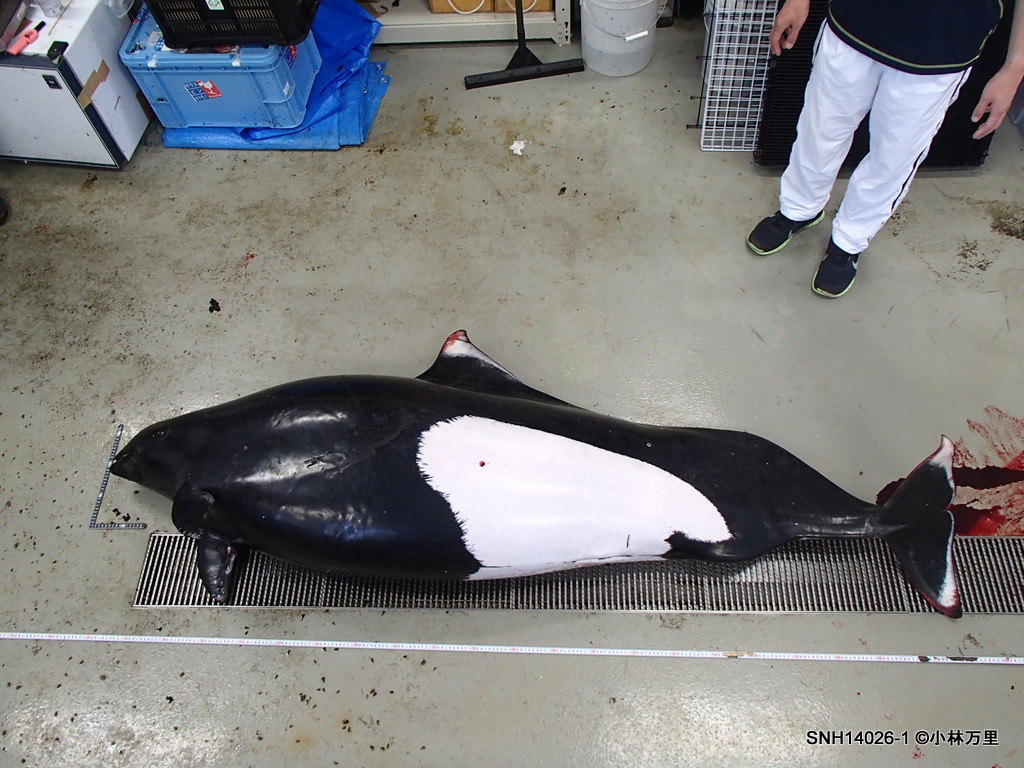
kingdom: Animalia
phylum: Chordata
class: Mammalia
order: Cetacea
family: Phocoenidae
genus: Phocoenoides
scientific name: Phocoenoides dalli
